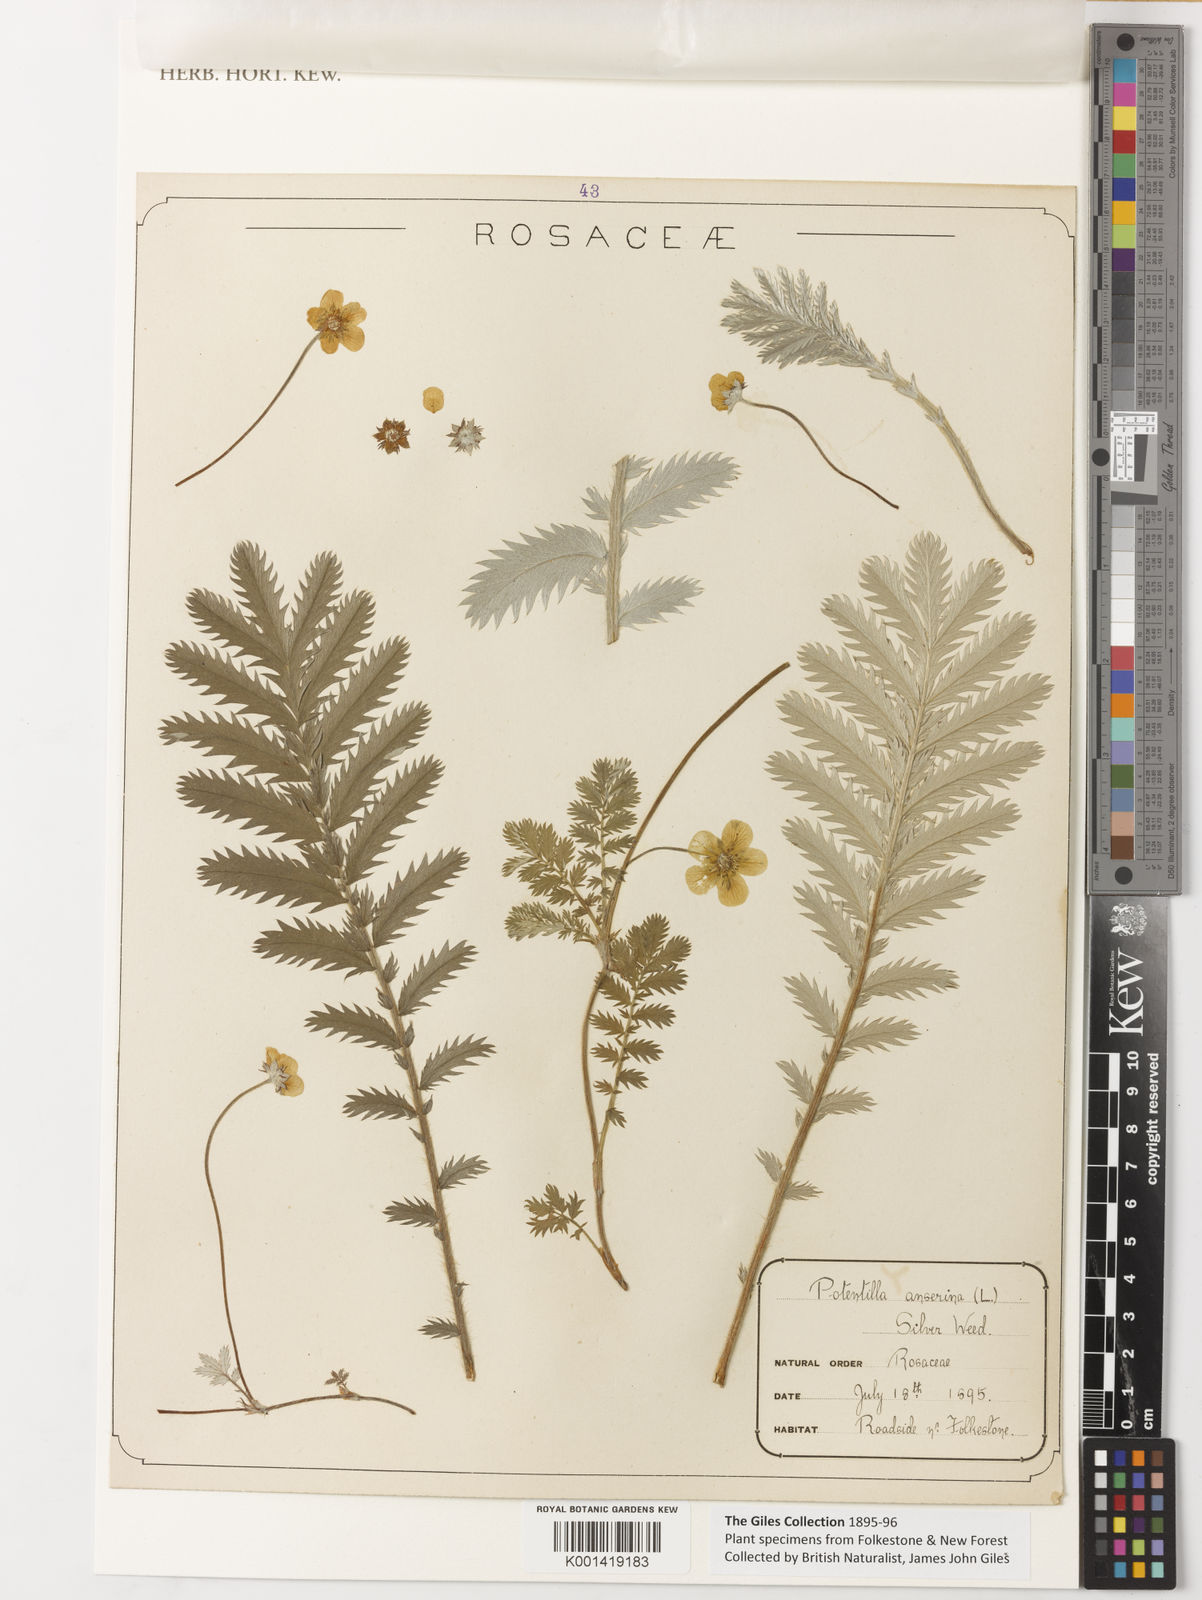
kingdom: Plantae
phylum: Tracheophyta
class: Magnoliopsida
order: Rosales
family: Rosaceae
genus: Argentina
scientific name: Argentina anserina
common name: Common silverweed
